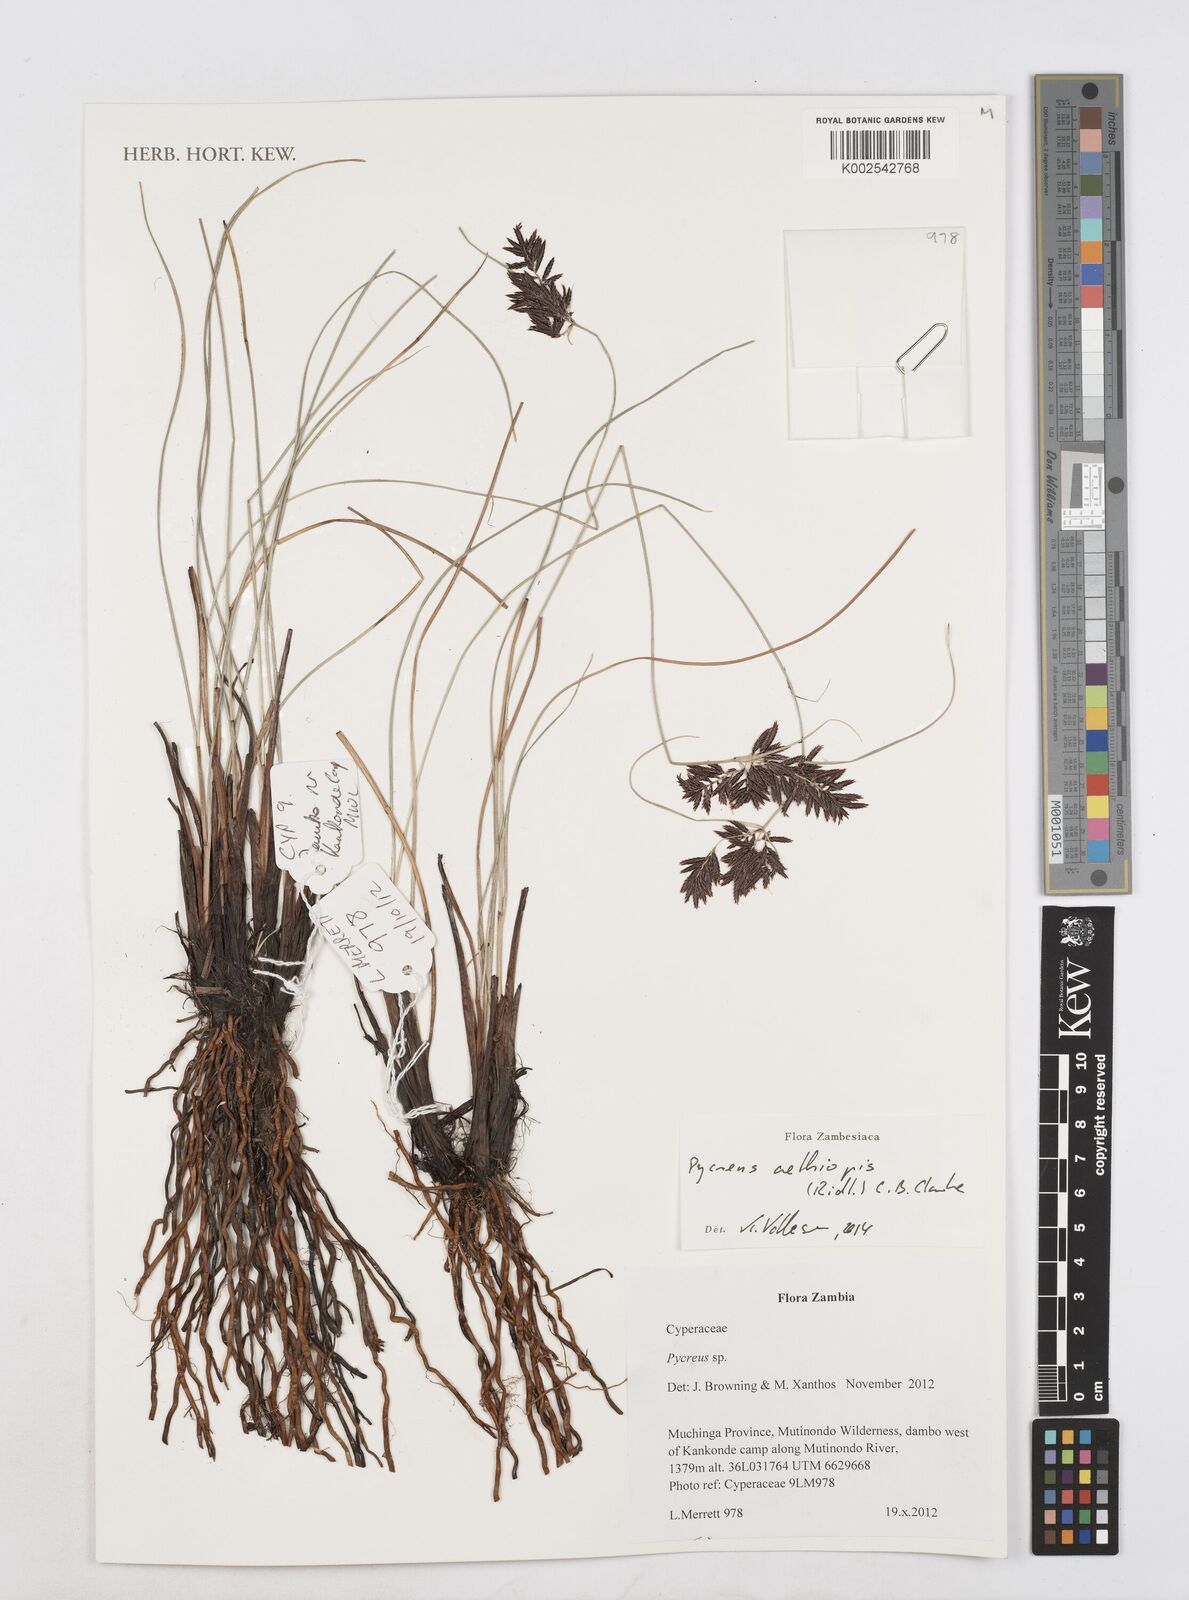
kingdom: Plantae
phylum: Tracheophyta
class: Liliopsida
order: Poales
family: Cyperaceae
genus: Cyperus
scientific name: Cyperus aethiops
